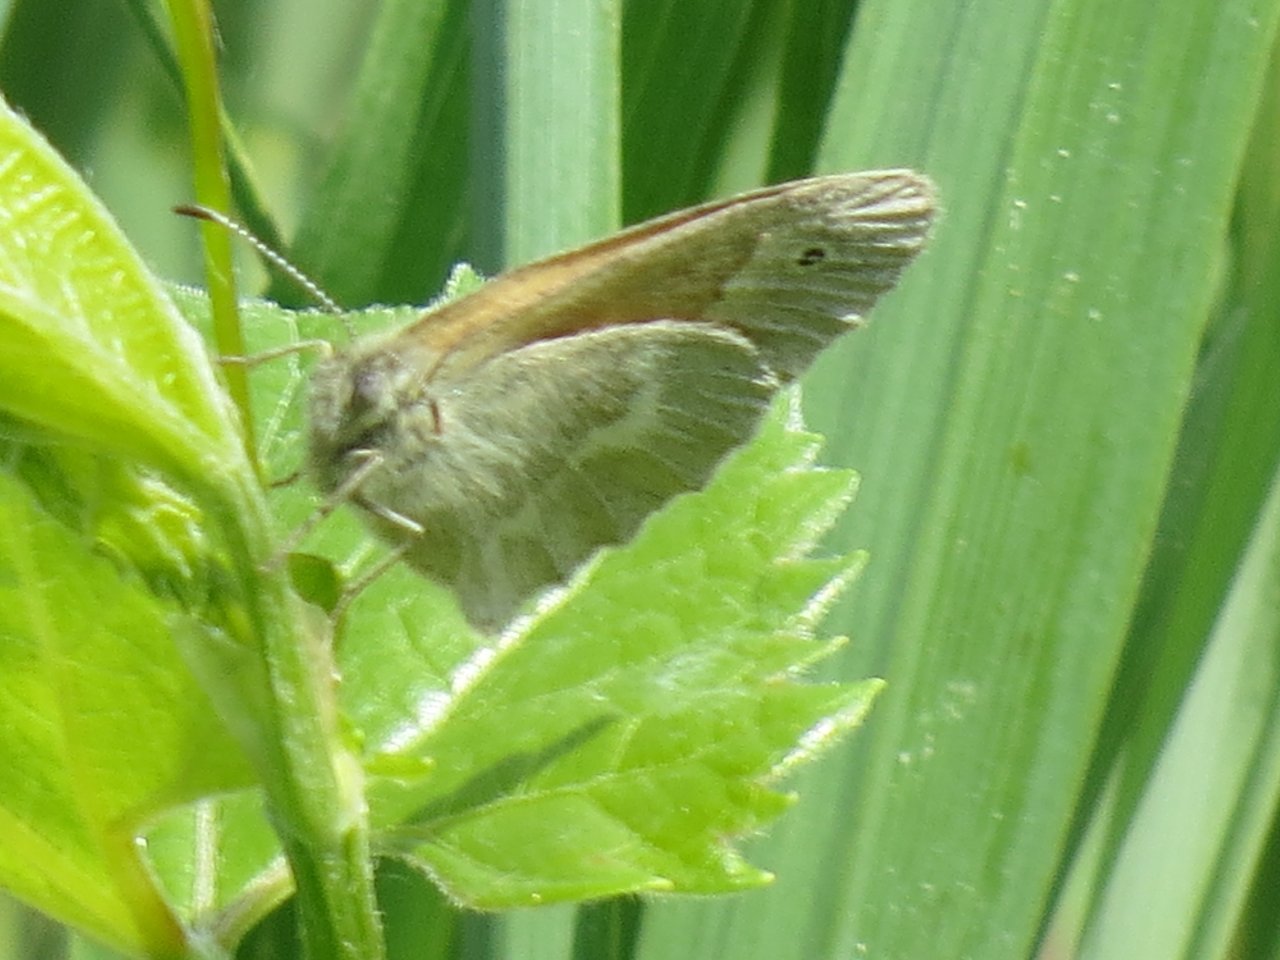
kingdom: Animalia
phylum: Arthropoda
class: Insecta
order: Lepidoptera
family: Nymphalidae
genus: Coenonympha
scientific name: Coenonympha tullia
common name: Large Heath
